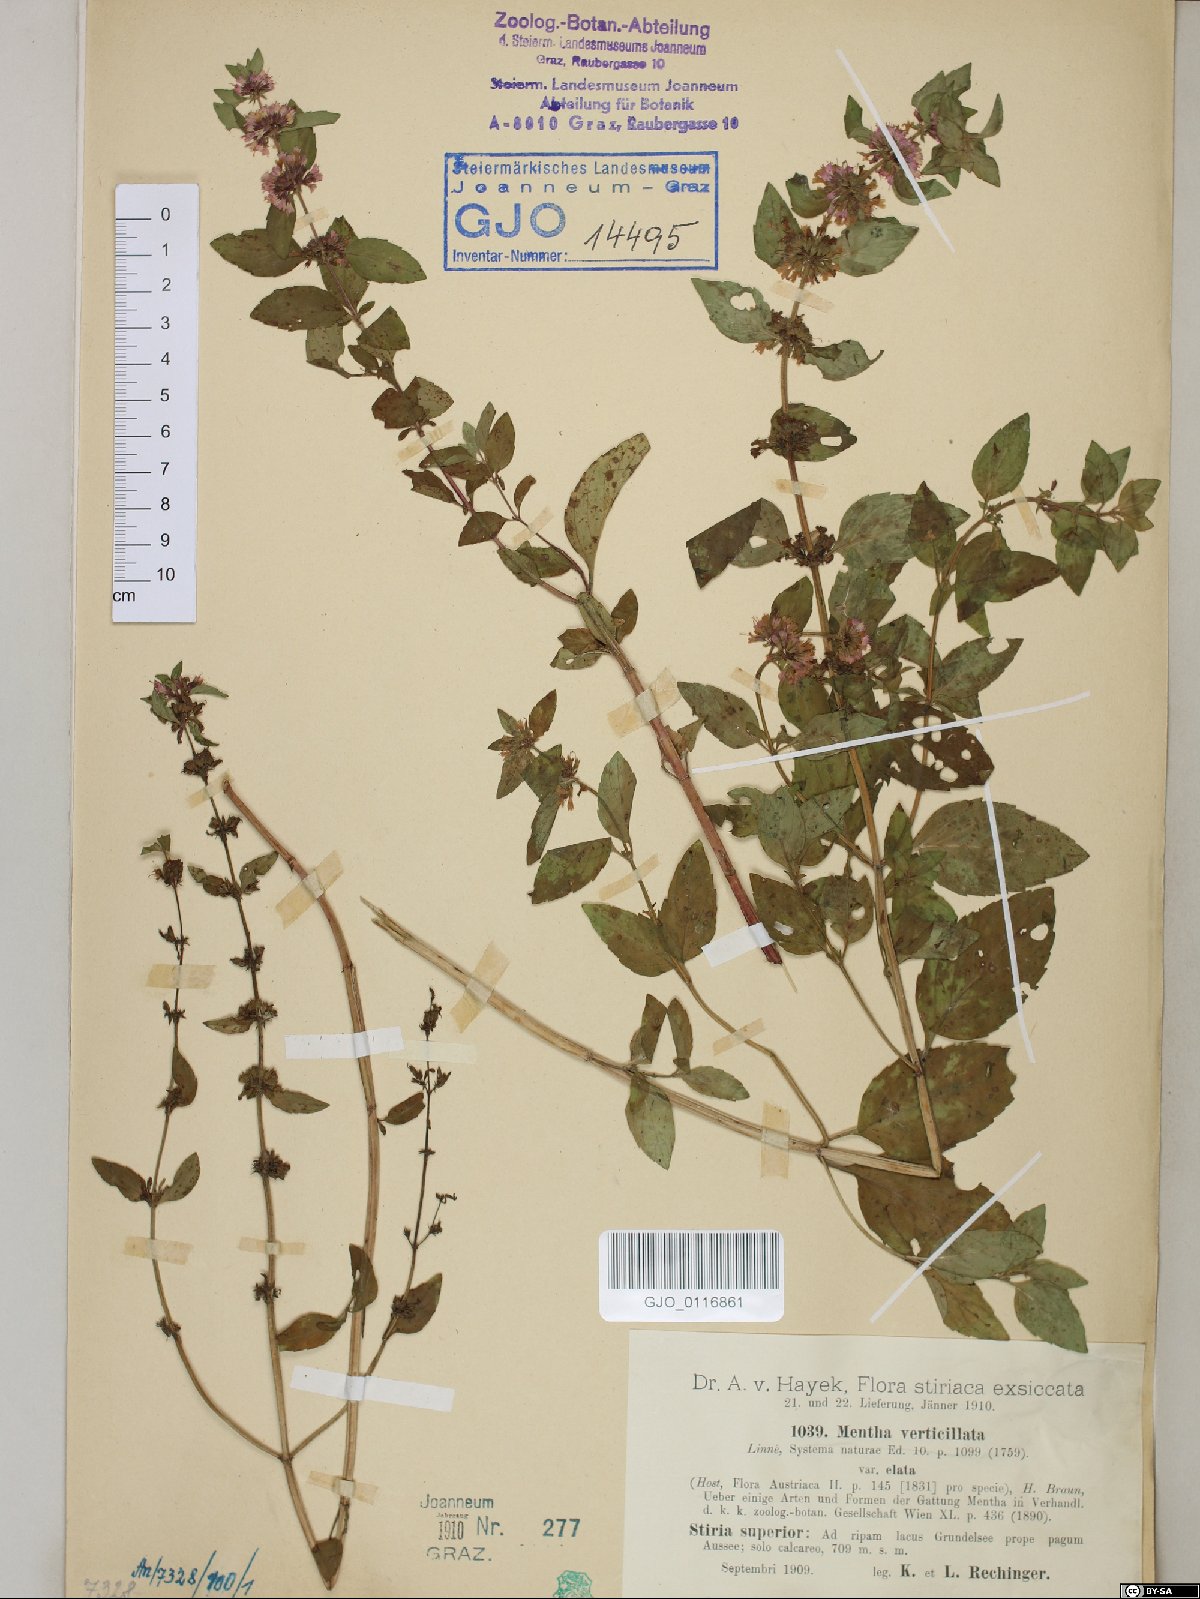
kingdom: Plantae
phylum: Tracheophyta
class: Magnoliopsida
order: Lamiales
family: Lamiaceae
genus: Mentha
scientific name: Mentha verticillata
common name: Mint
